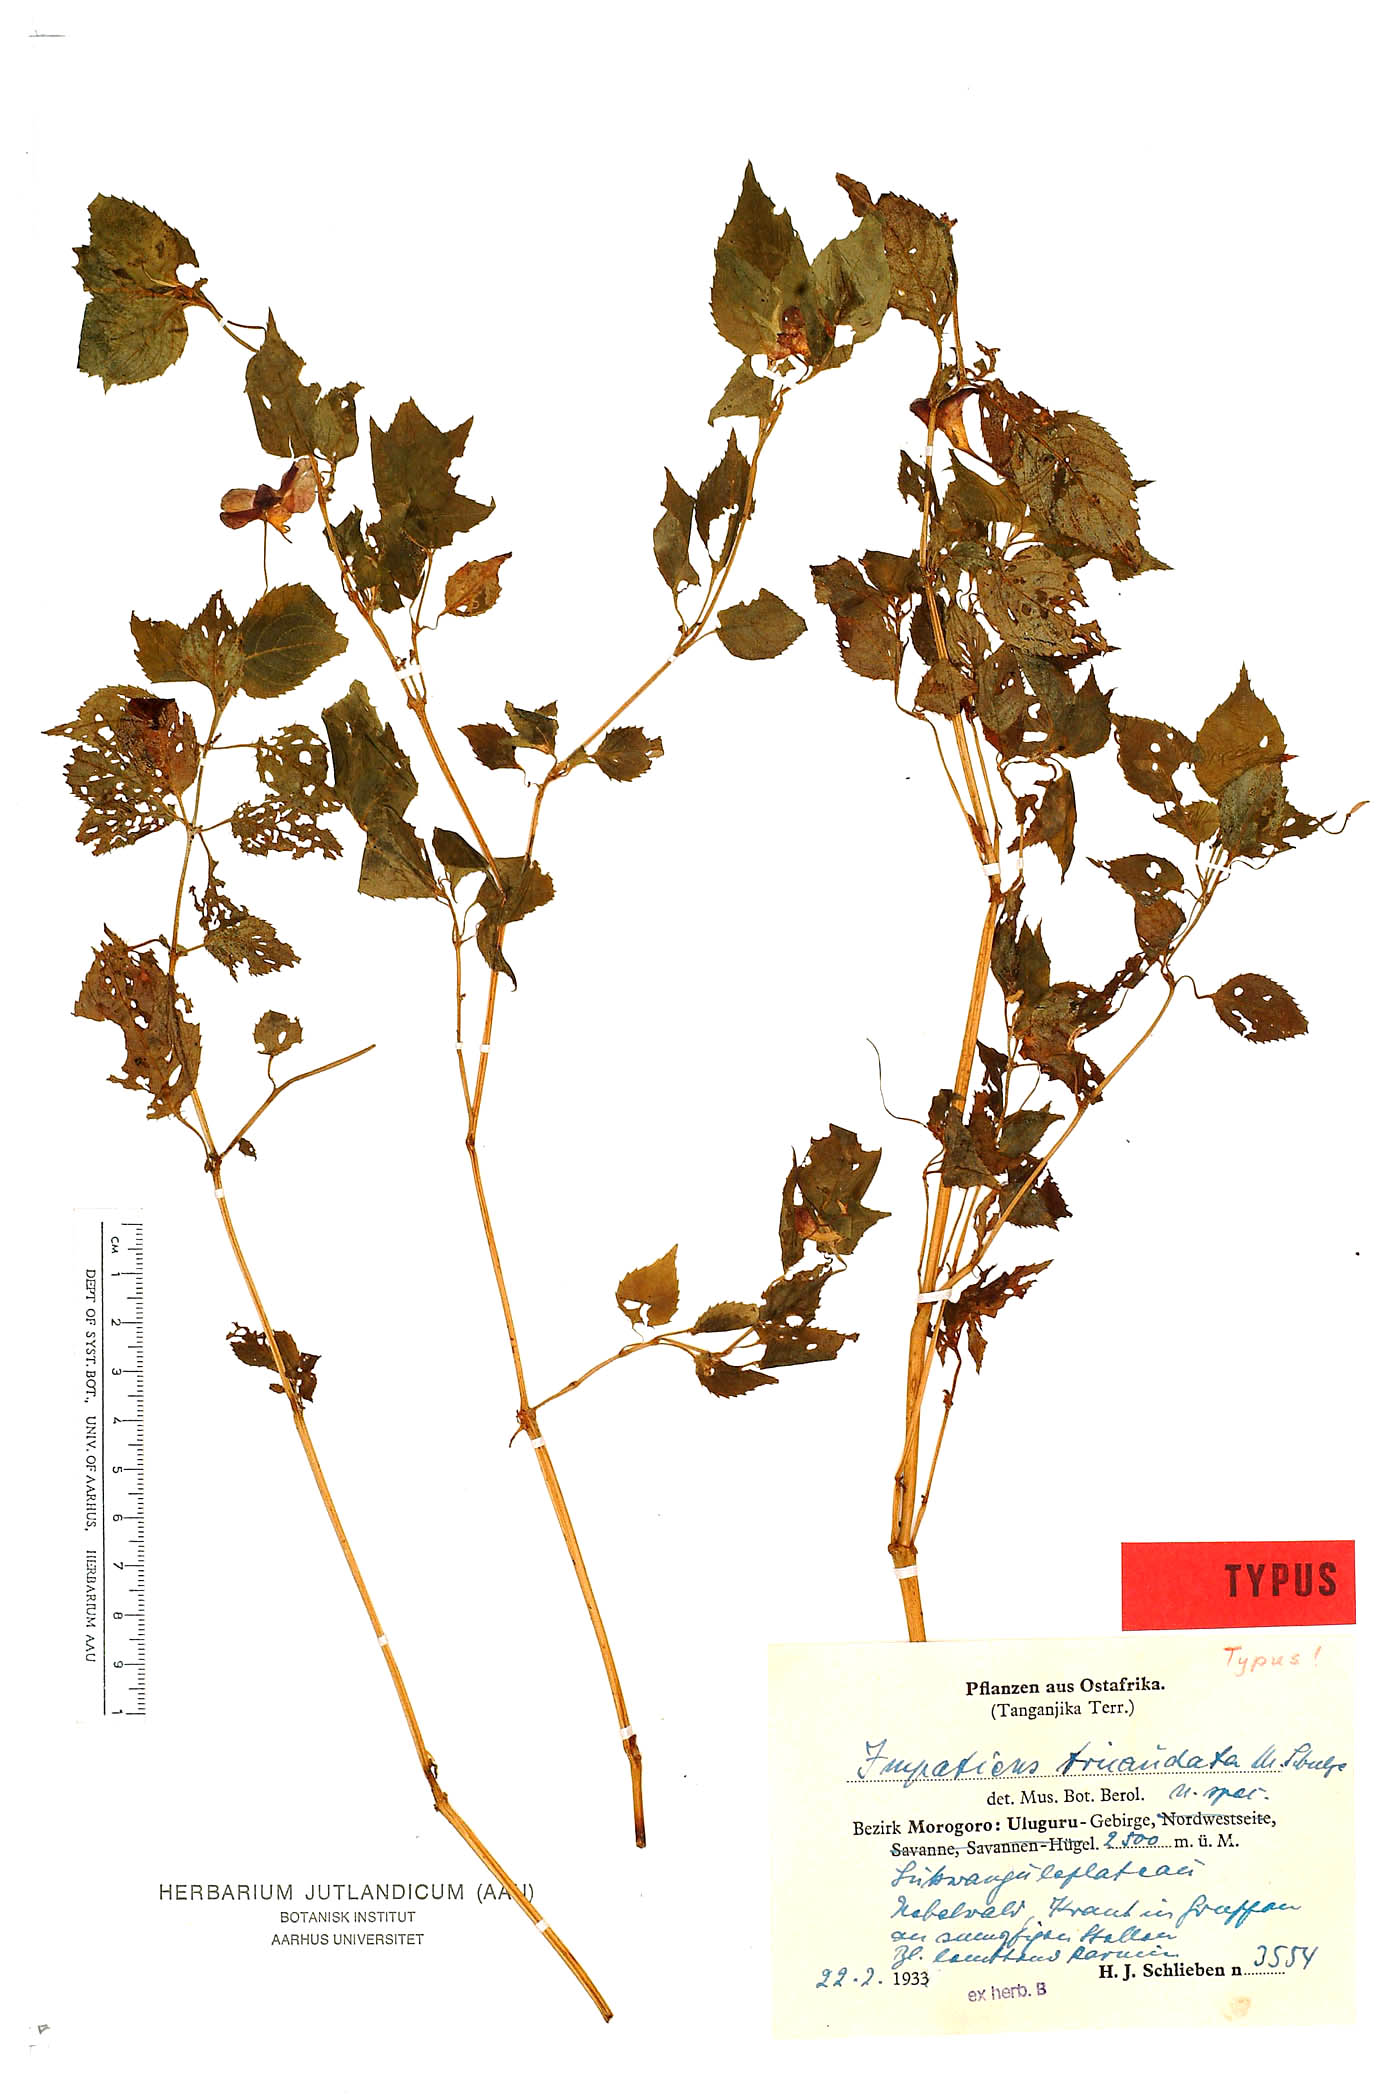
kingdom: Plantae
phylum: Tracheophyta
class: Magnoliopsida
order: Ericales
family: Balsaminaceae
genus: Impatiens
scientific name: Impatiens tricaudata
